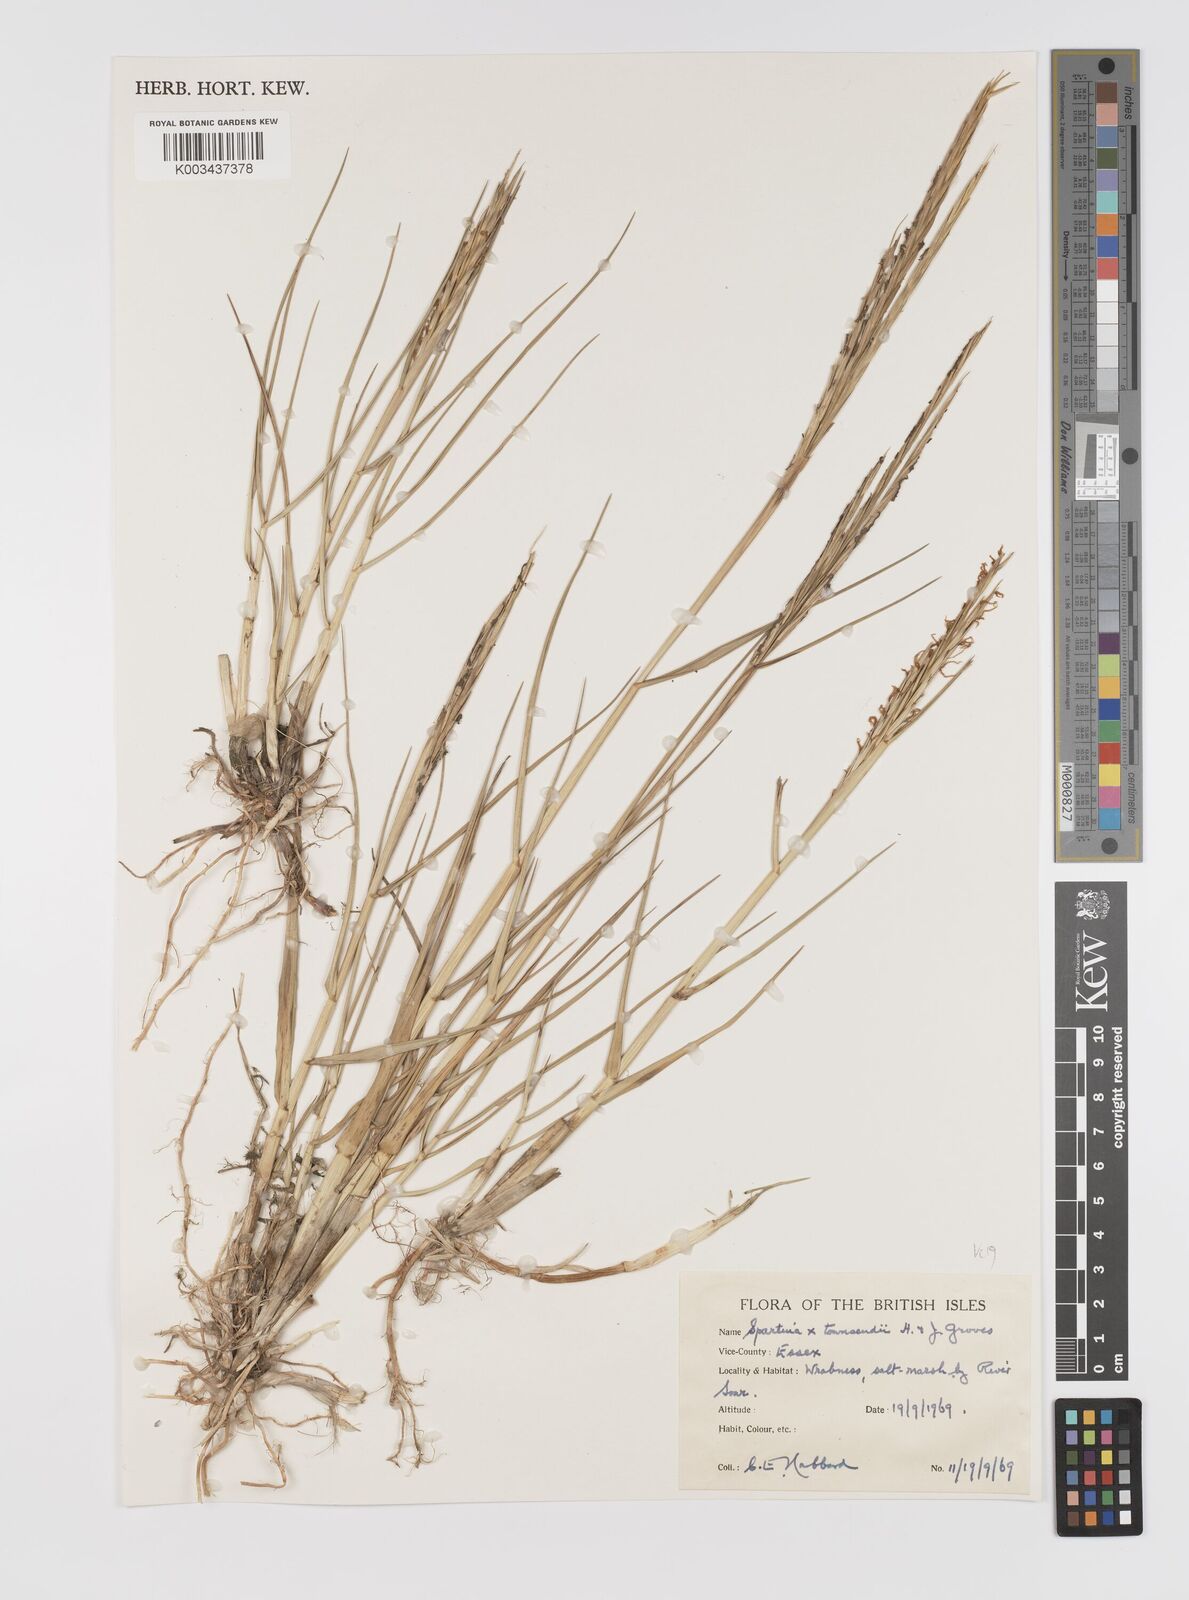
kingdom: Plantae
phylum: Tracheophyta
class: Liliopsida
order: Poales
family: Poaceae
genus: Sporobolus
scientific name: Sporobolus townsendii
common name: Townsend's cordgrass
